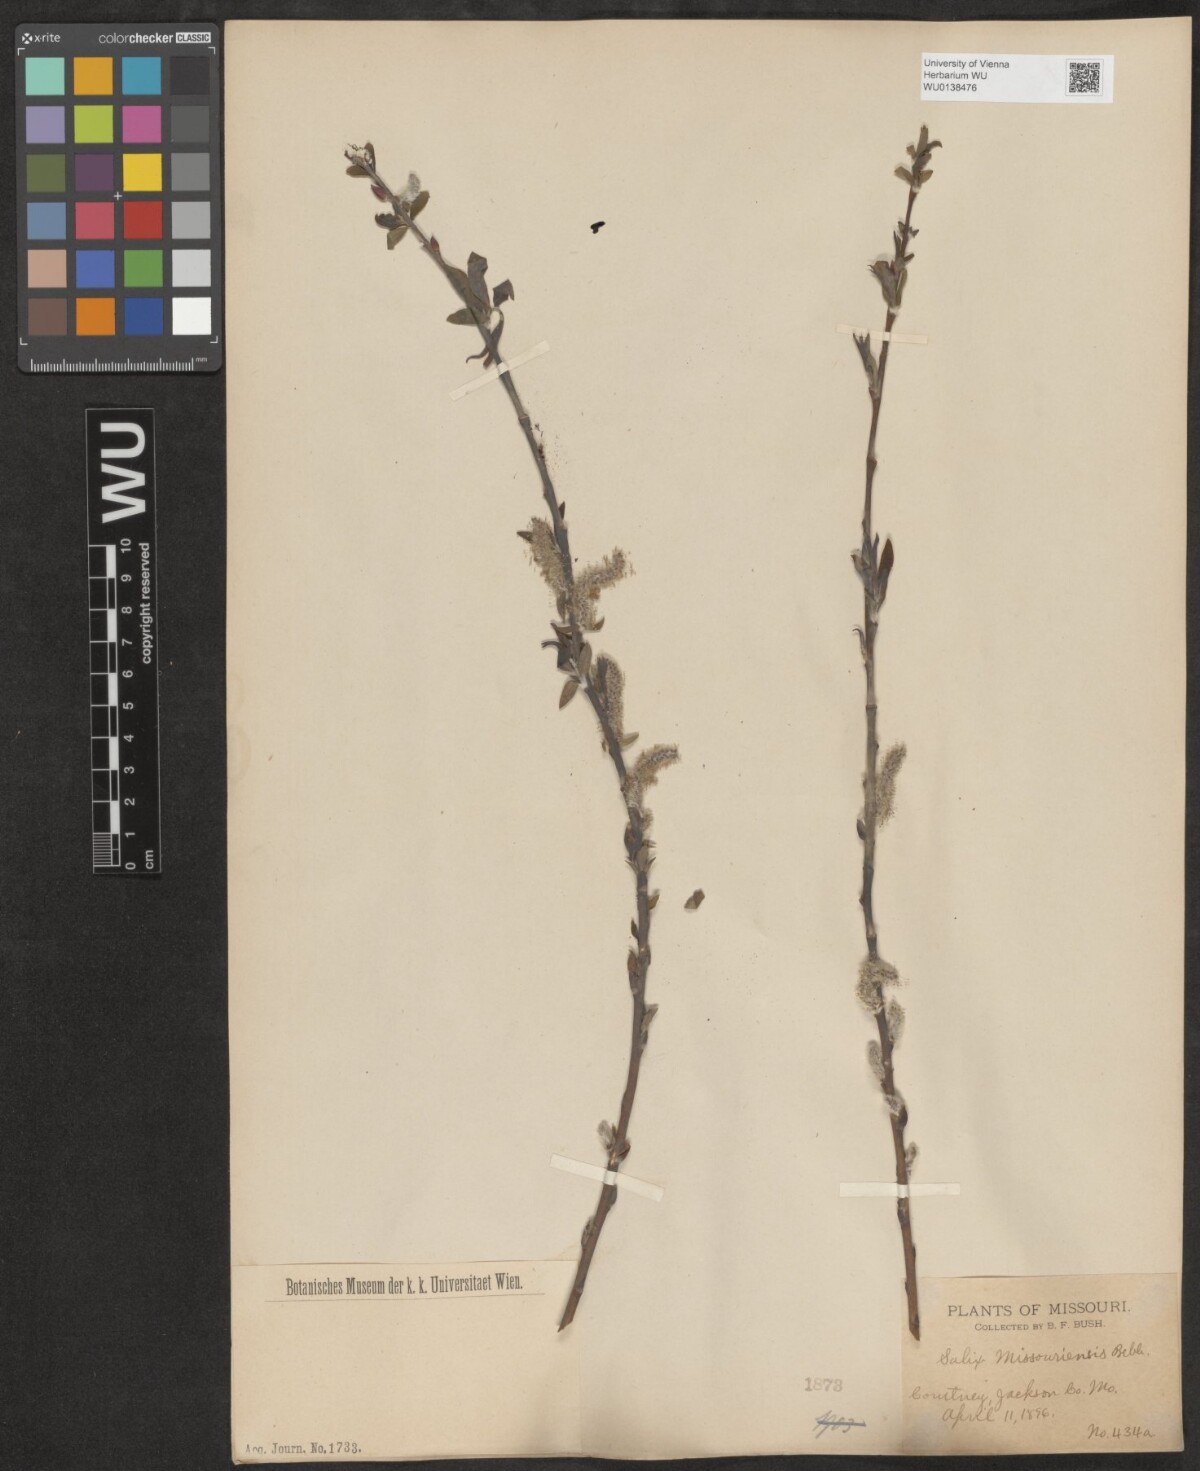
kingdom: Plantae
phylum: Tracheophyta
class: Magnoliopsida
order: Malpighiales
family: Salicaceae
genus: Salix
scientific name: Salix eriocephala
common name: Heart-leaved willow
